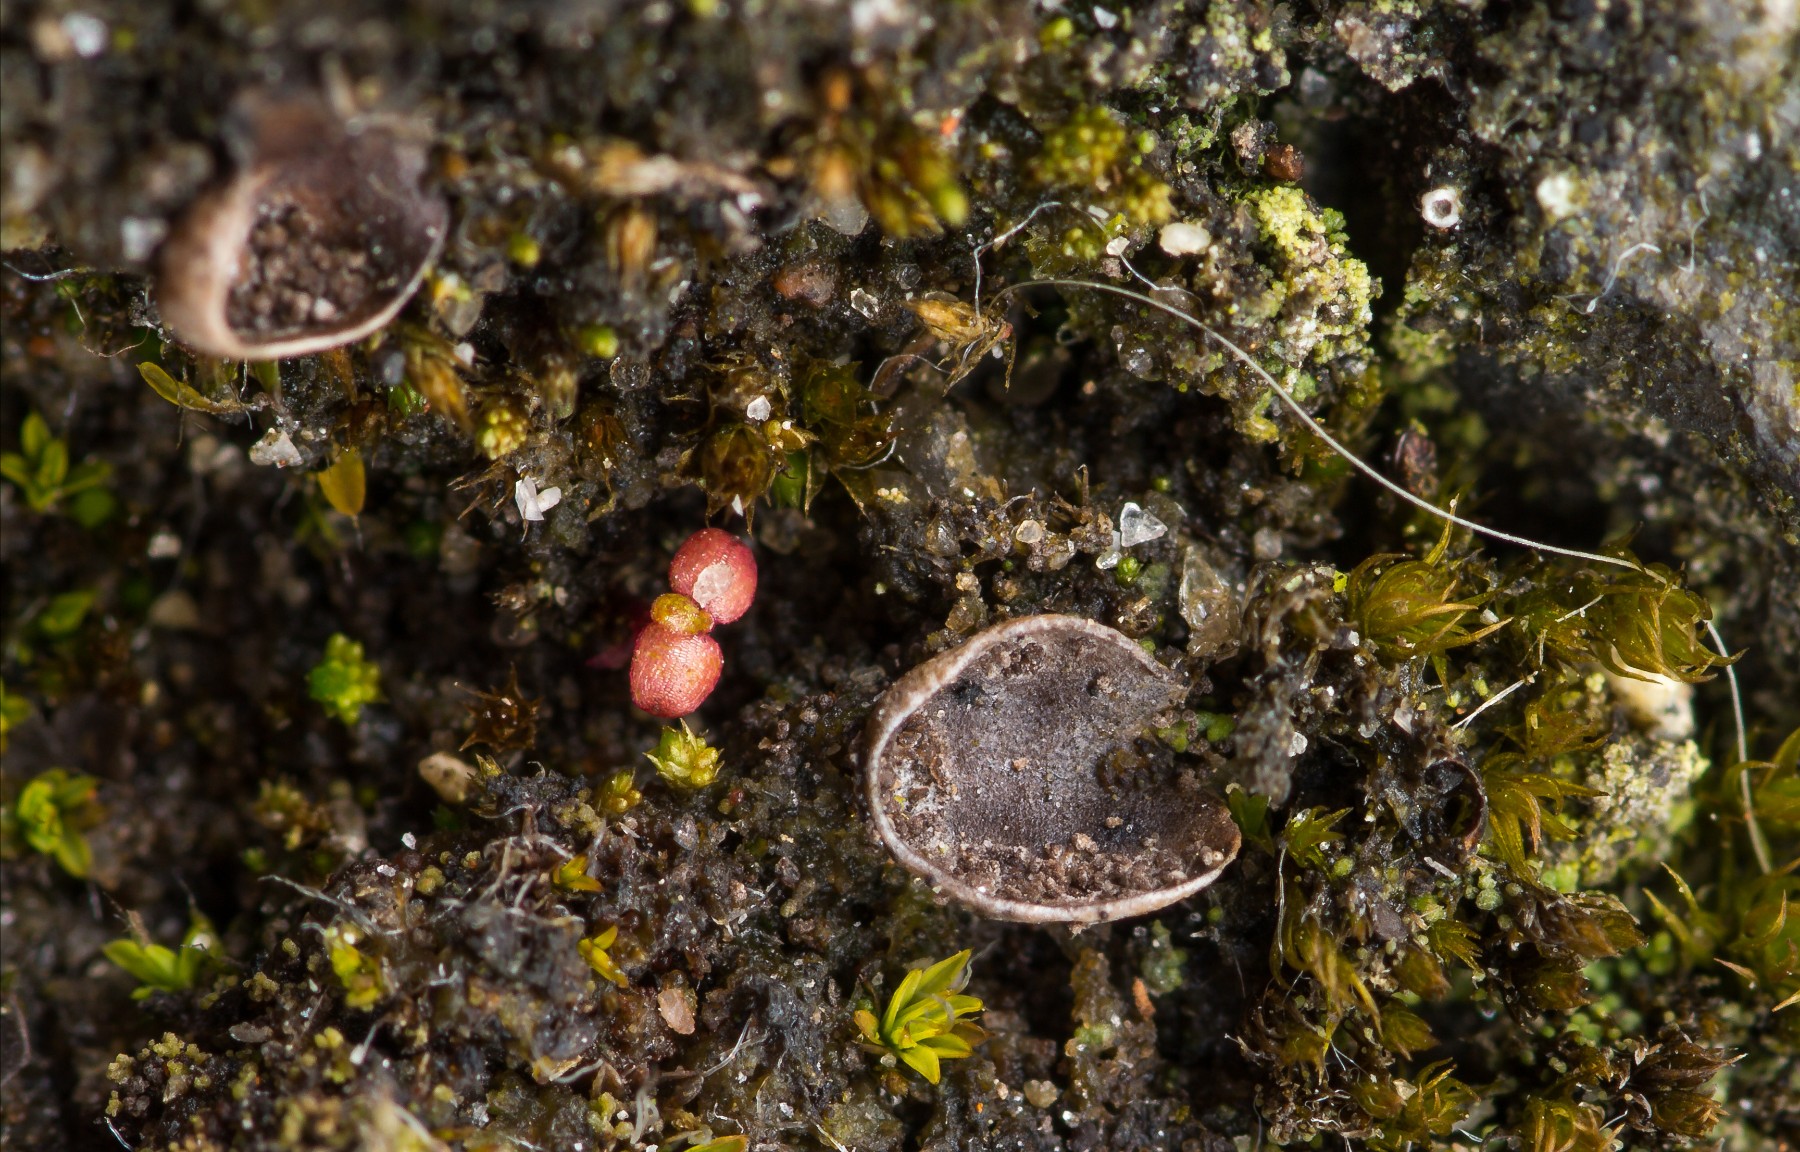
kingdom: Fungi
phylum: Ascomycota
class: Lecanoromycetes
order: Peltigerales
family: Peltigeraceae
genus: Peltigera
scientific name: Peltigera didactyla
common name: liden skjoldlav
